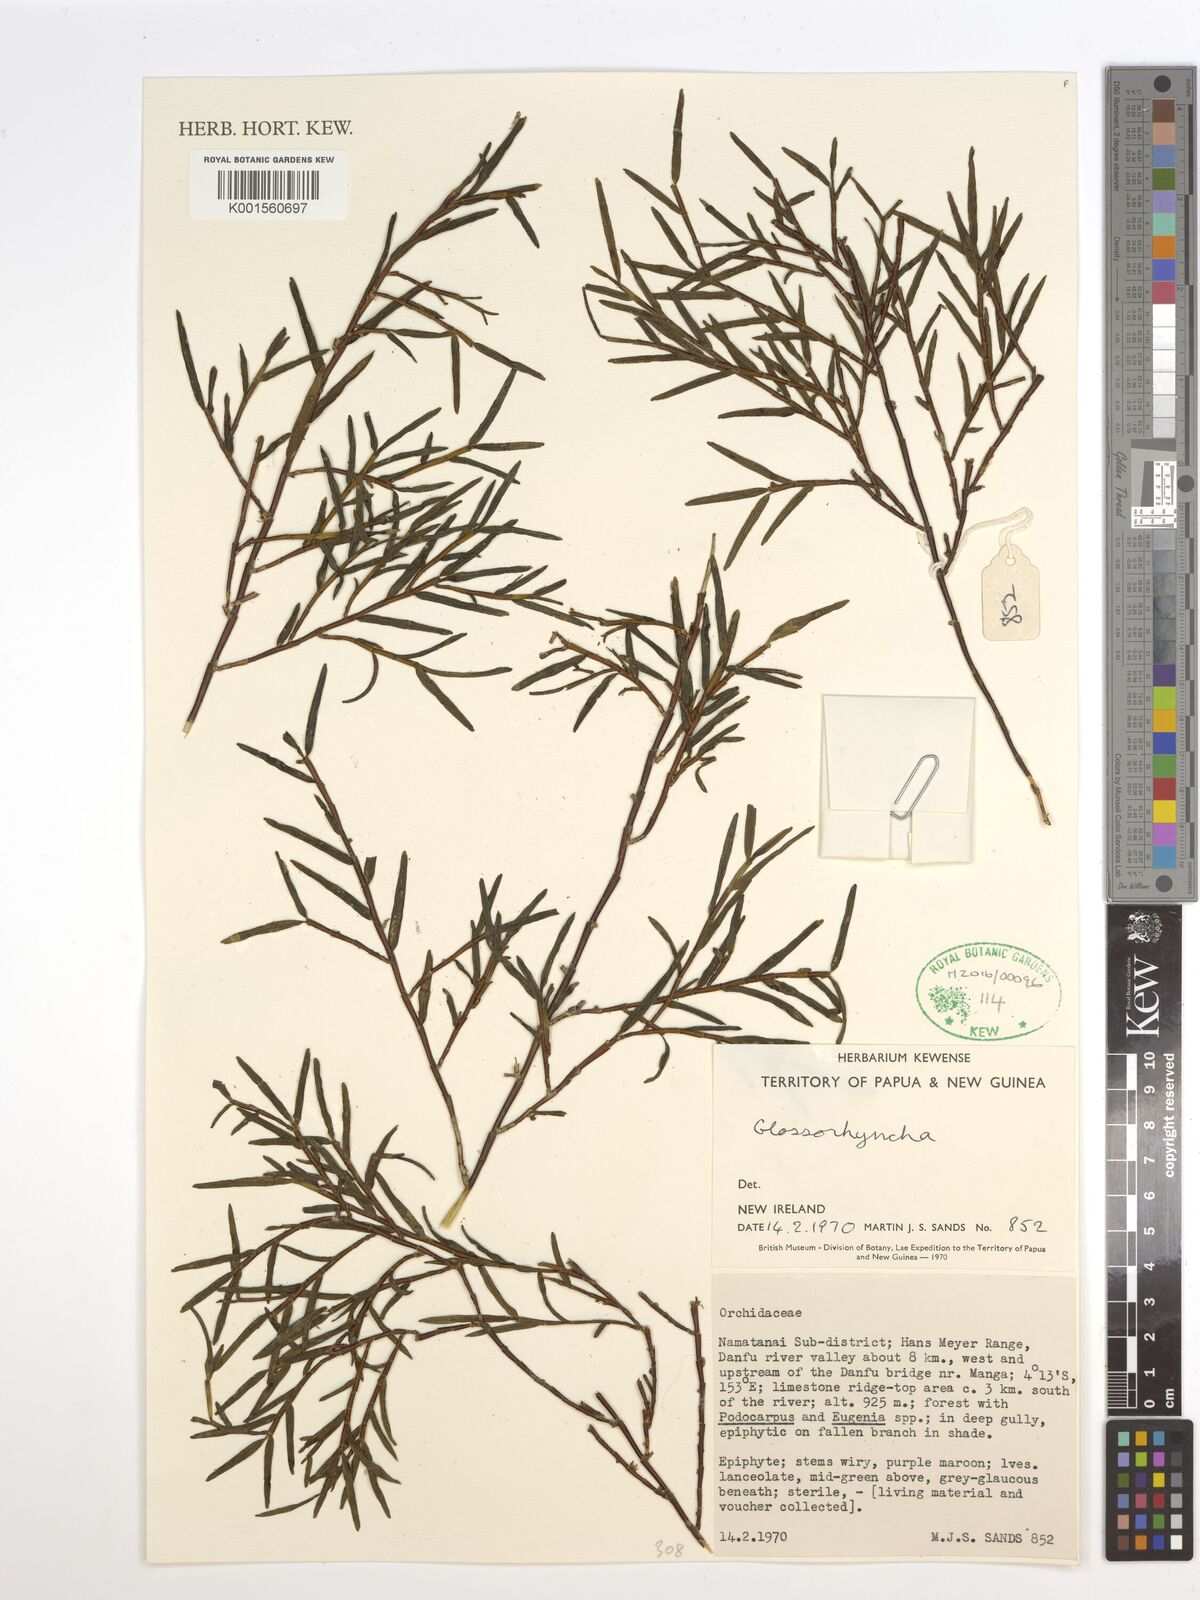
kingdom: Plantae
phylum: Tracheophyta
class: Liliopsida
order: Asparagales
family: Orchidaceae
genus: Glomera
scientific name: Glomera
